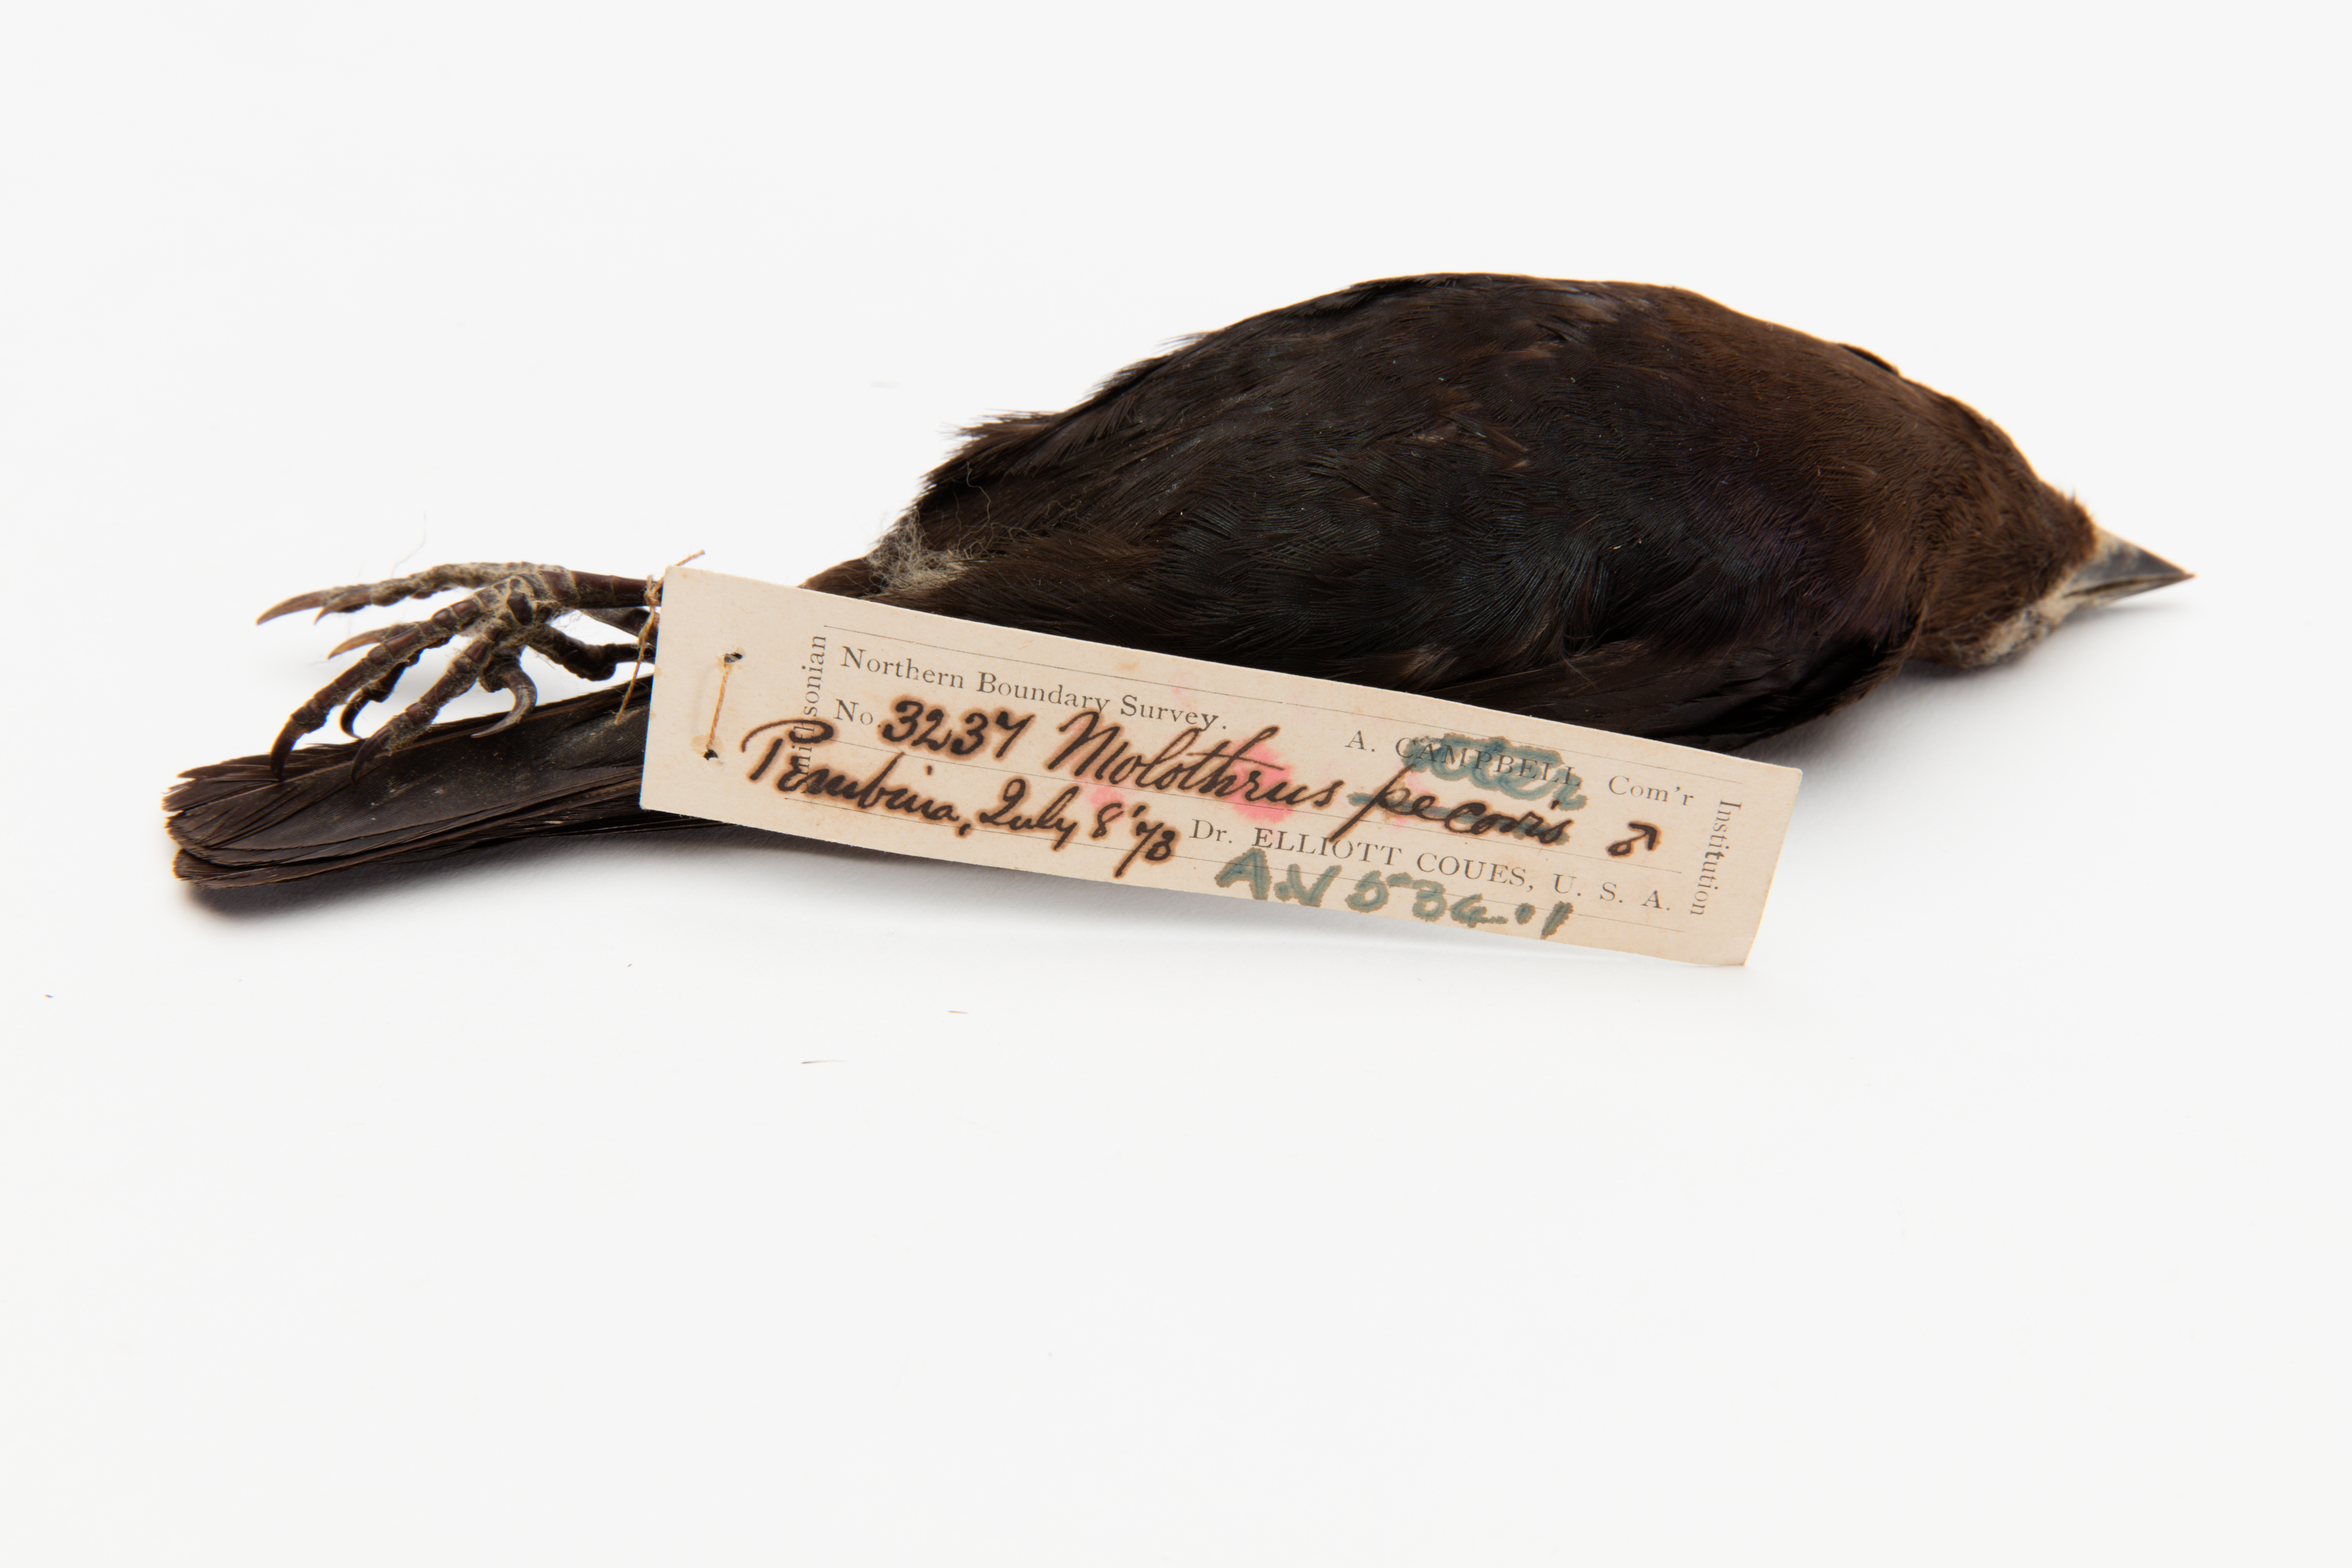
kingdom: Animalia
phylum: Chordata
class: Aves
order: Passeriformes
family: Icteridae
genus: Molothrus
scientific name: Molothrus ater
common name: Brown-headed cowbird
